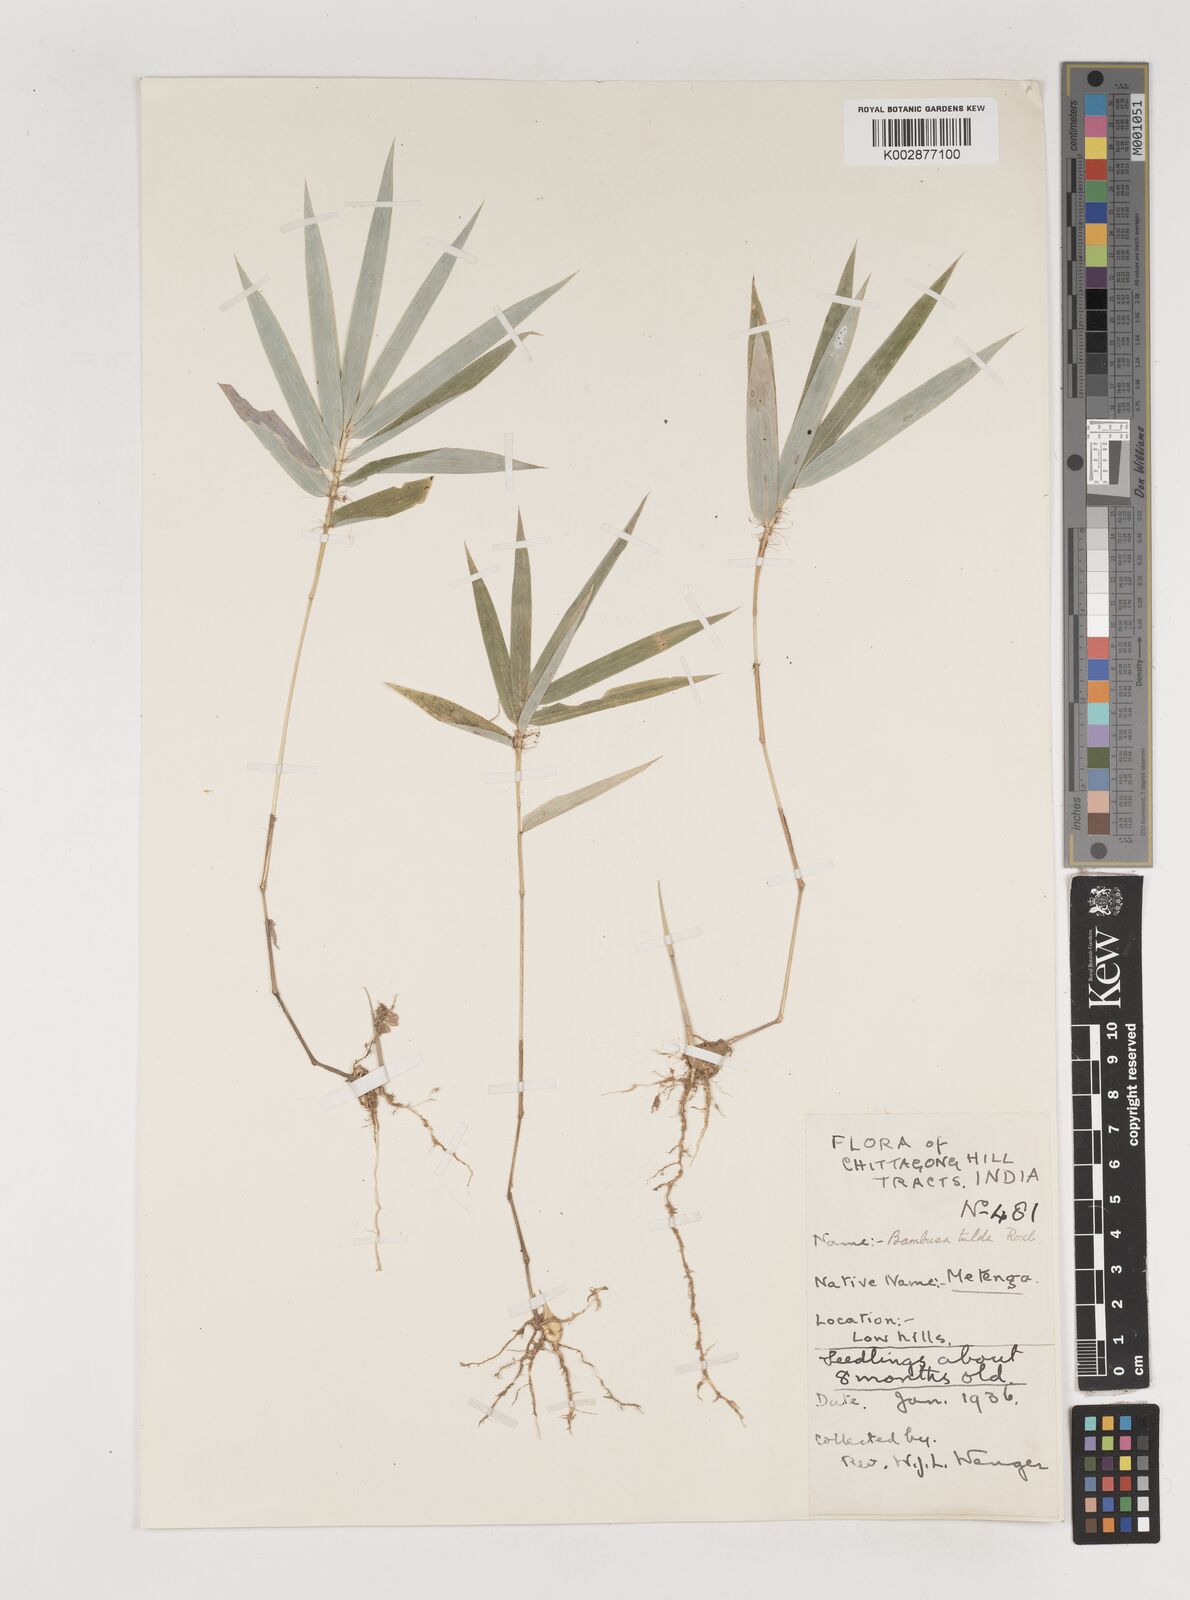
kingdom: Plantae
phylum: Tracheophyta
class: Liliopsida
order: Poales
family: Poaceae
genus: Bambusa
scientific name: Bambusa tulda
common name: Bengal bamboo
